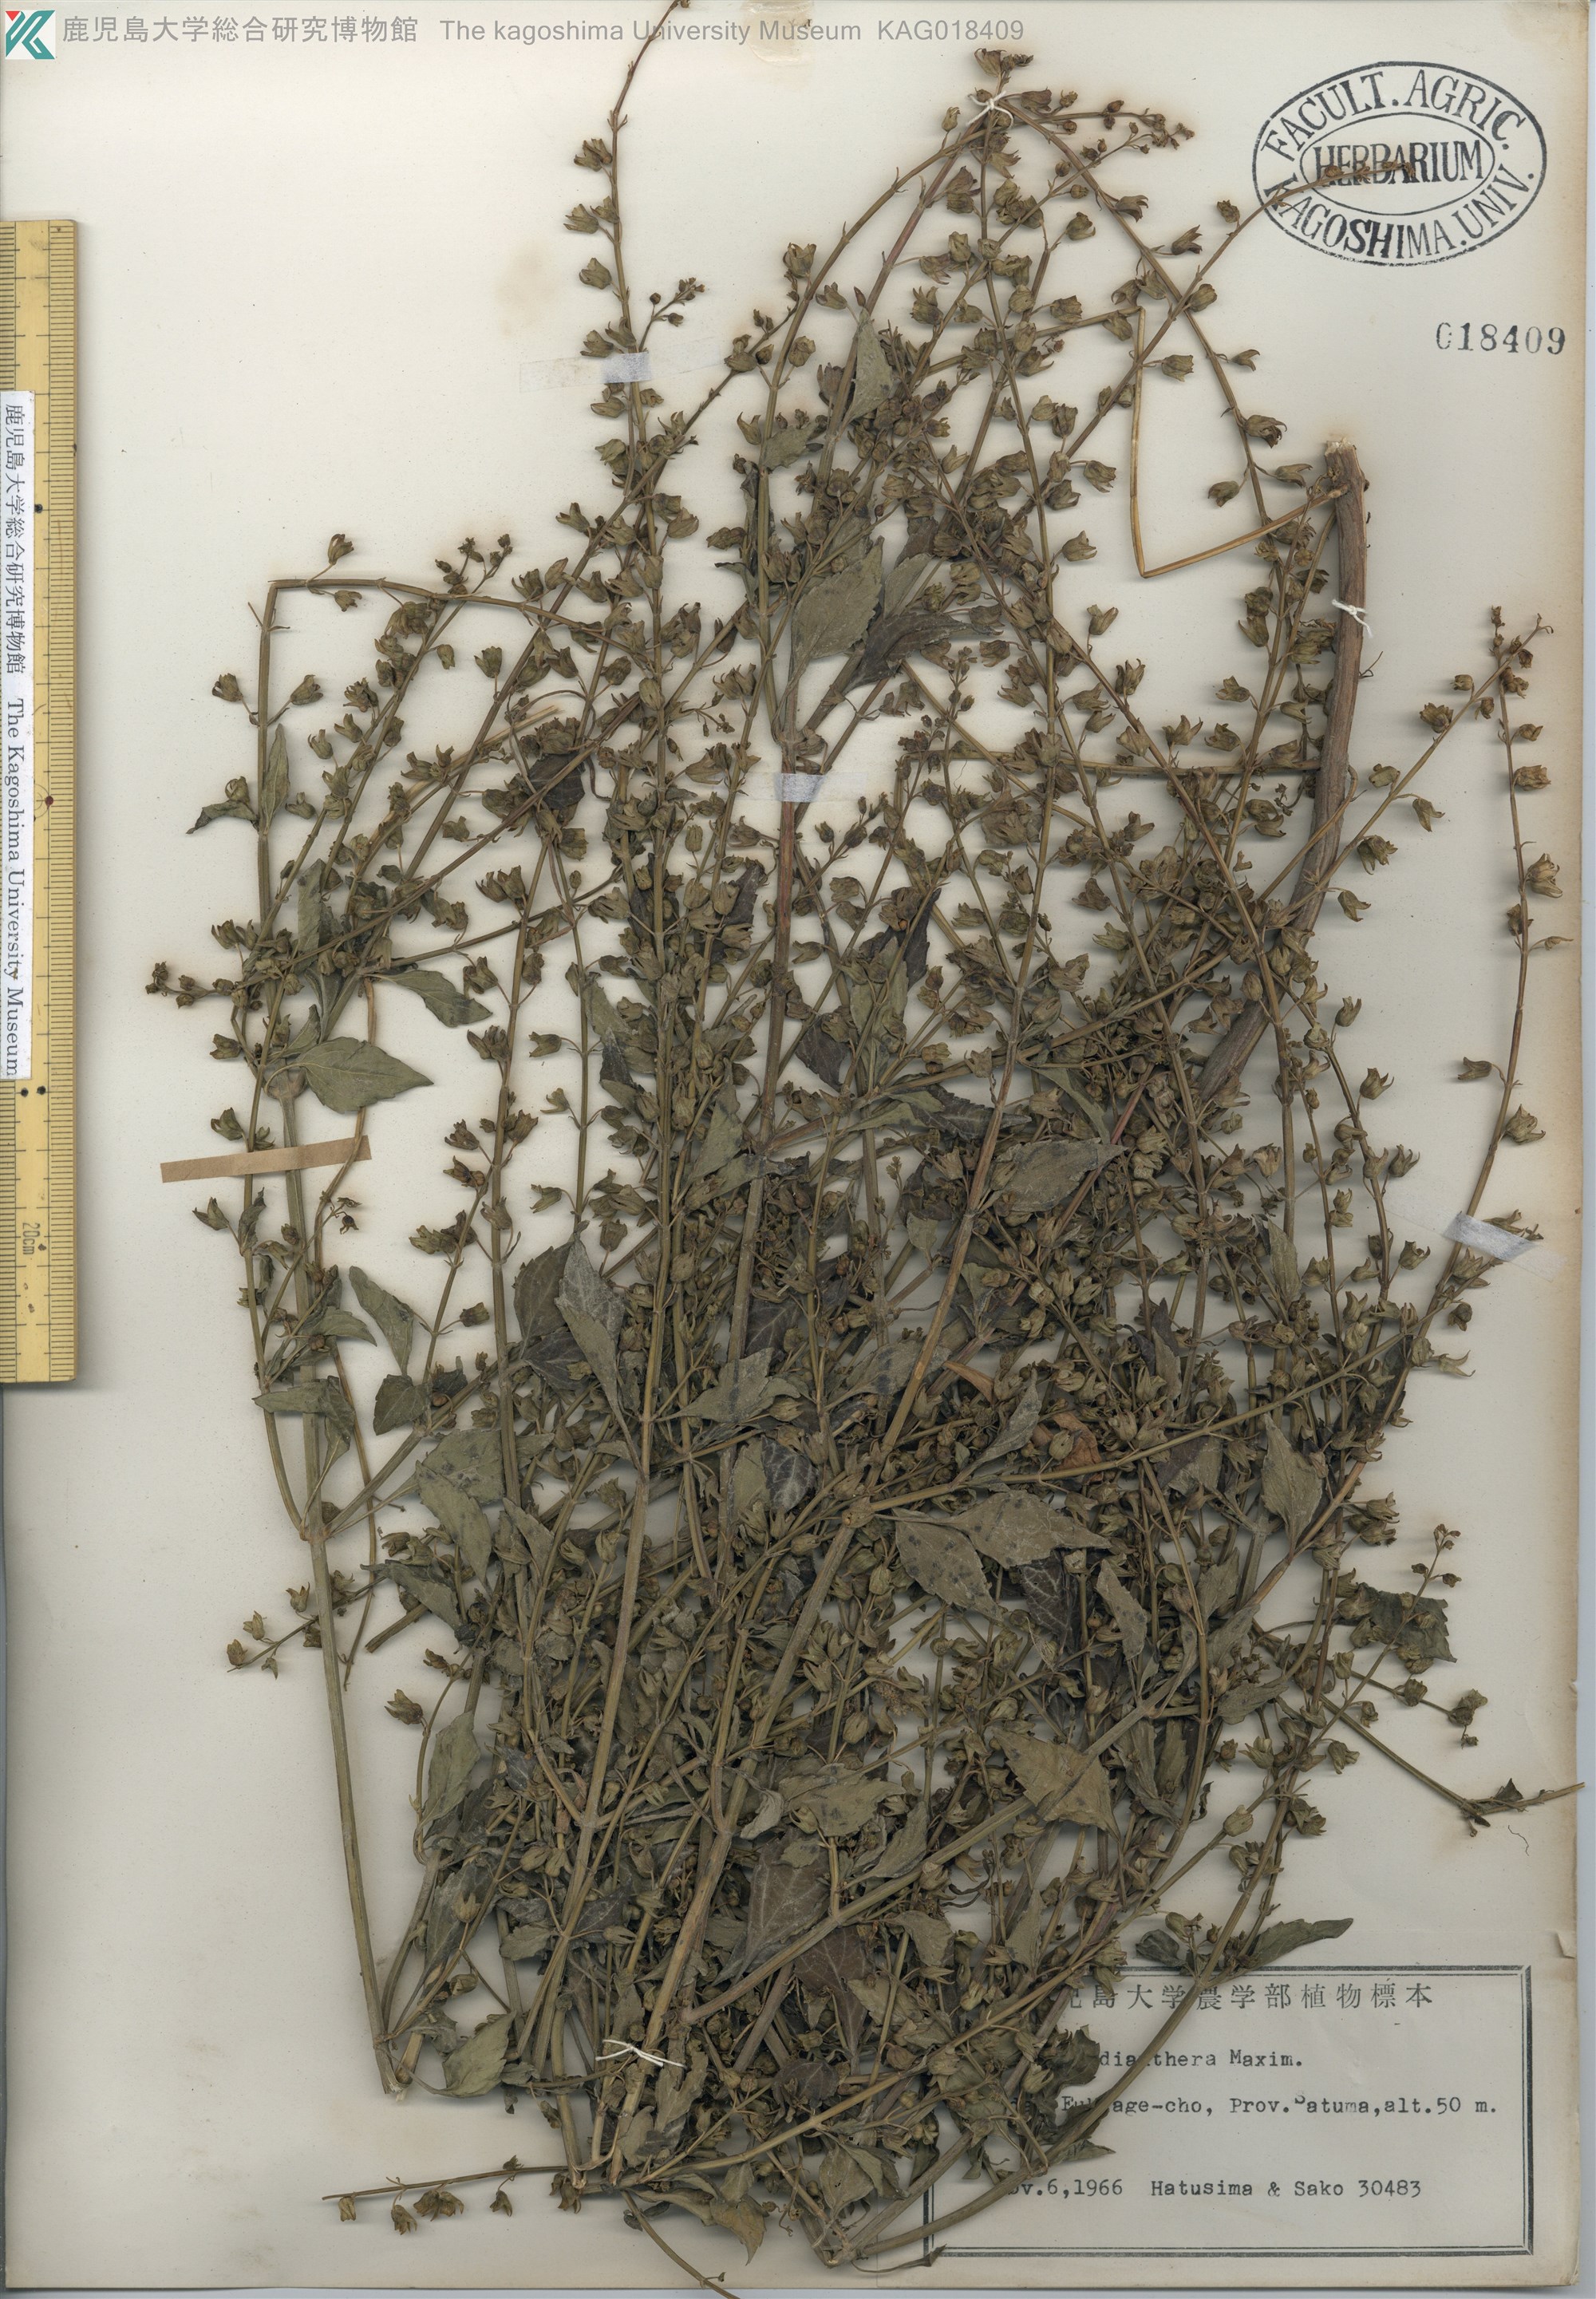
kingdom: Plantae
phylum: Tracheophyta
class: Magnoliopsida
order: Lamiales
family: Lamiaceae
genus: Mosla
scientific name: Mosla dianthera
